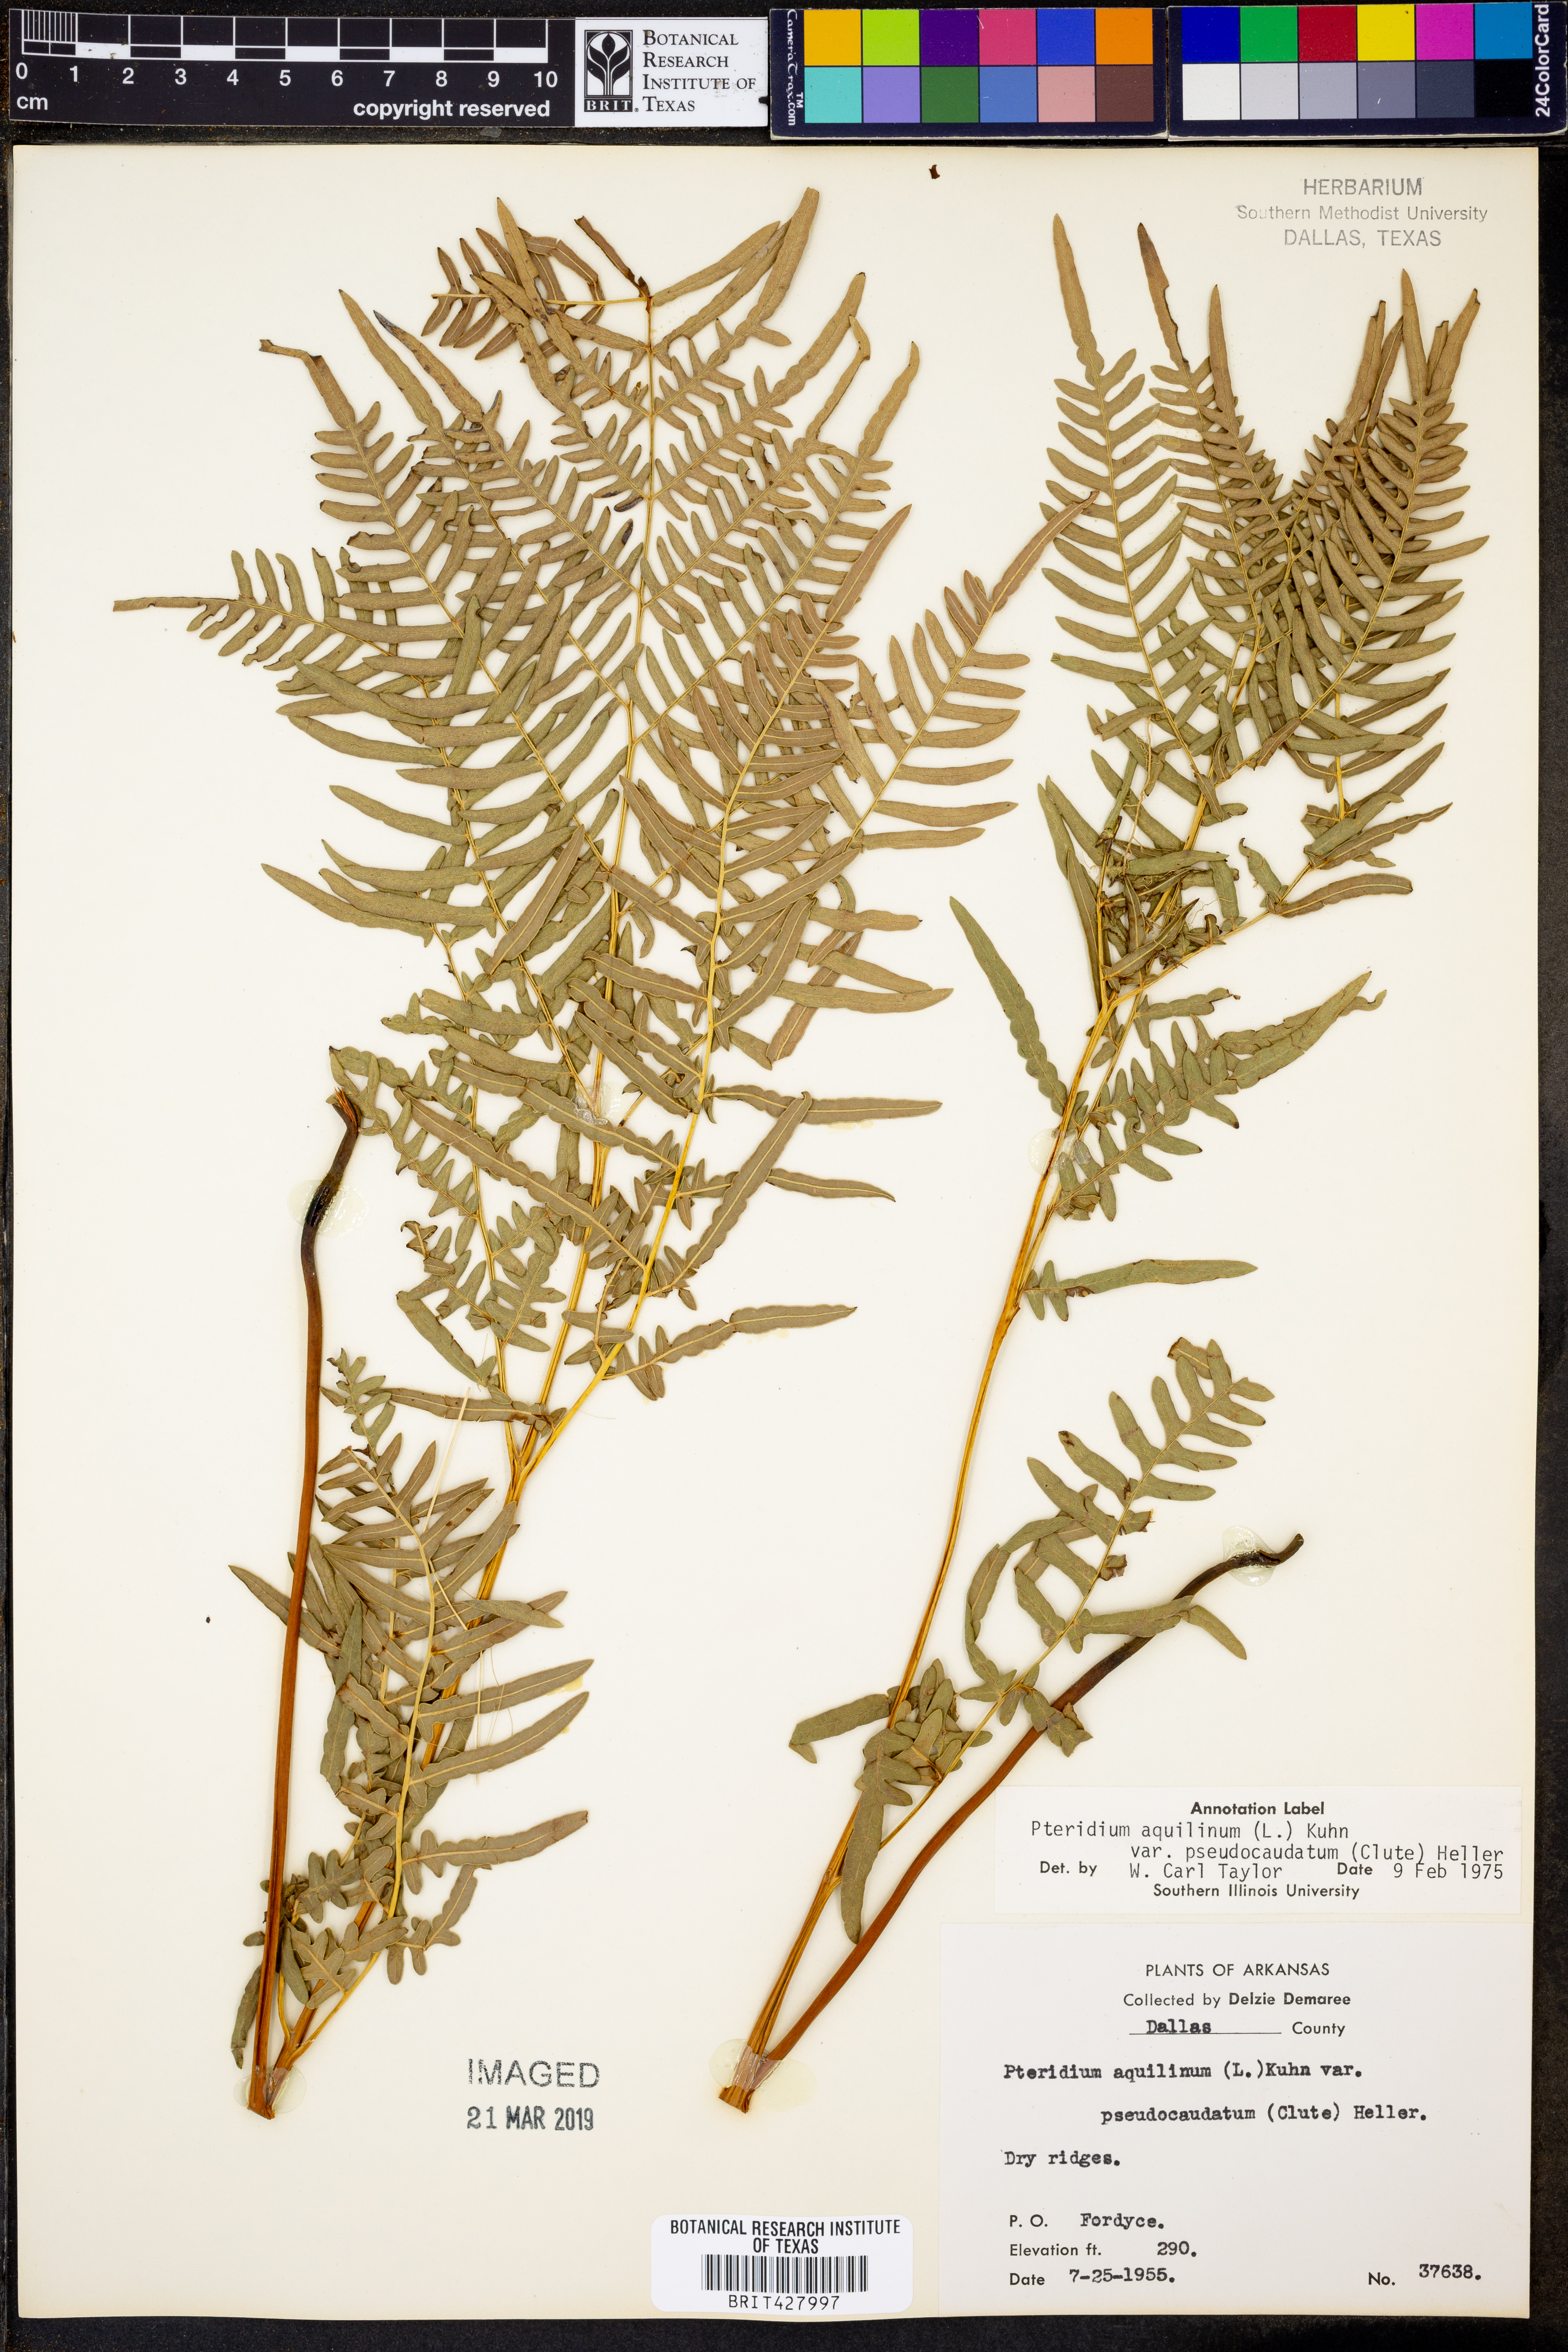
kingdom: Plantae
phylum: Tracheophyta
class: Polypodiopsida
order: Polypodiales
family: Dennstaedtiaceae
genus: Pteridium
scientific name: Pteridium aquilinum
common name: Bracken
